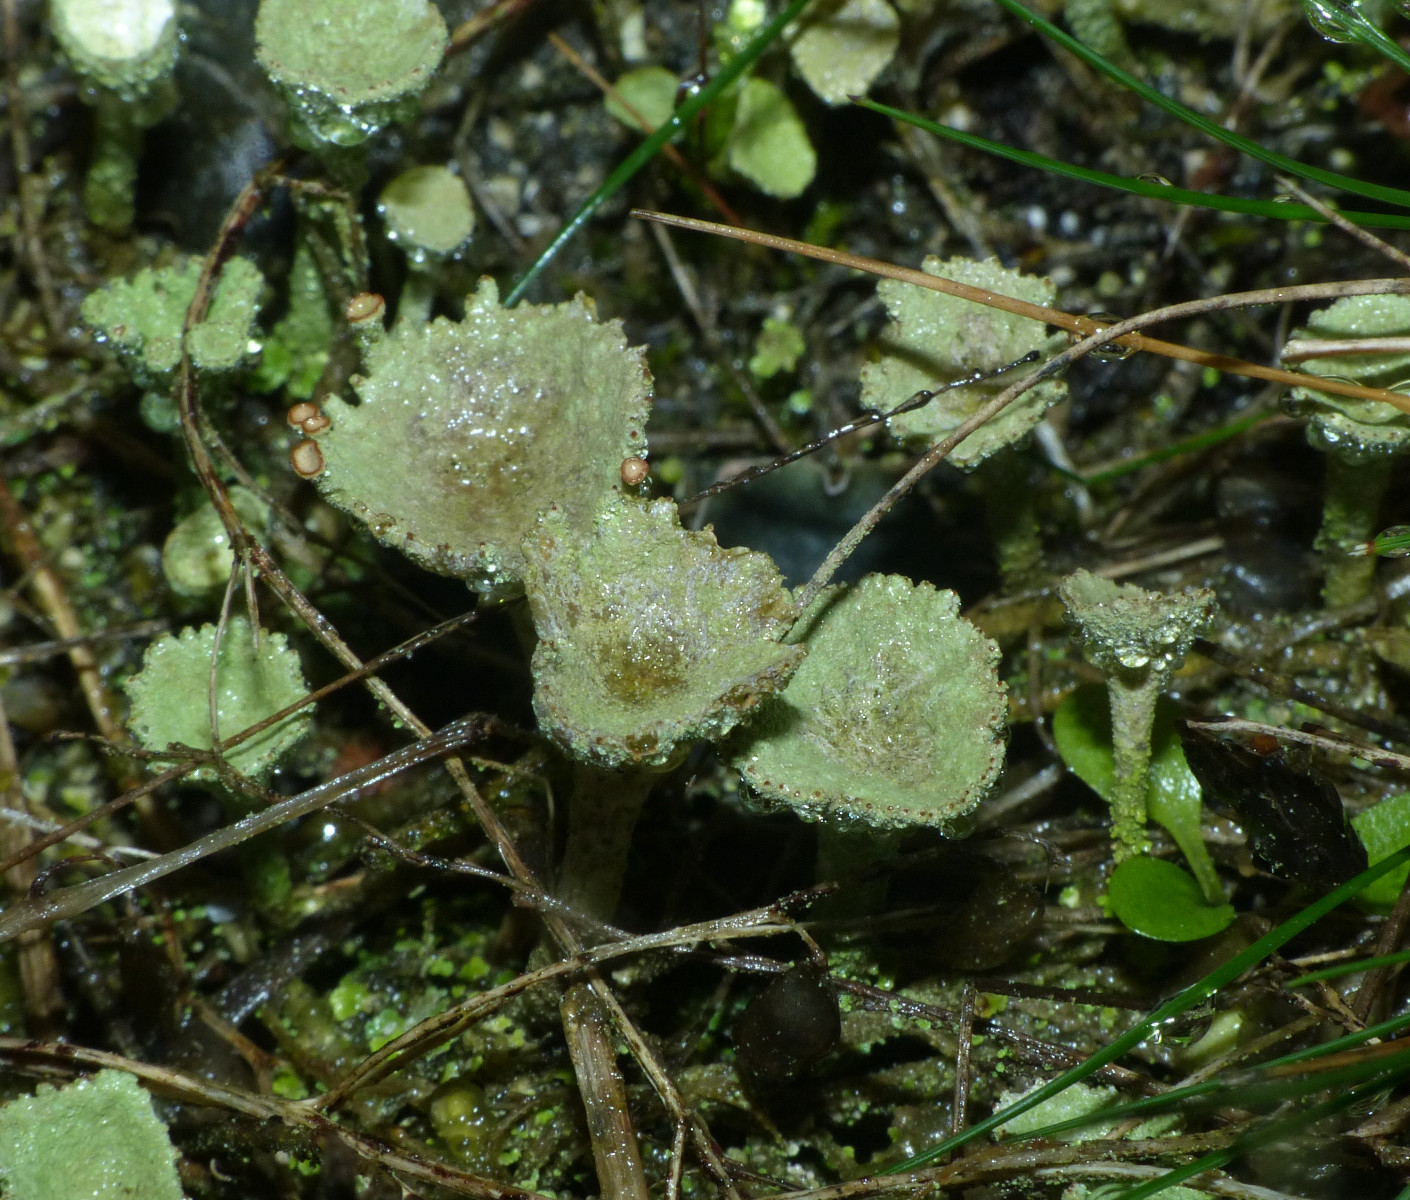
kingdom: Fungi
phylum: Ascomycota
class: Lecanoromycetes
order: Lecanorales
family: Cladoniaceae
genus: Cladonia
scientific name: Cladonia fimbriata
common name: bleggrøn bægerlav
